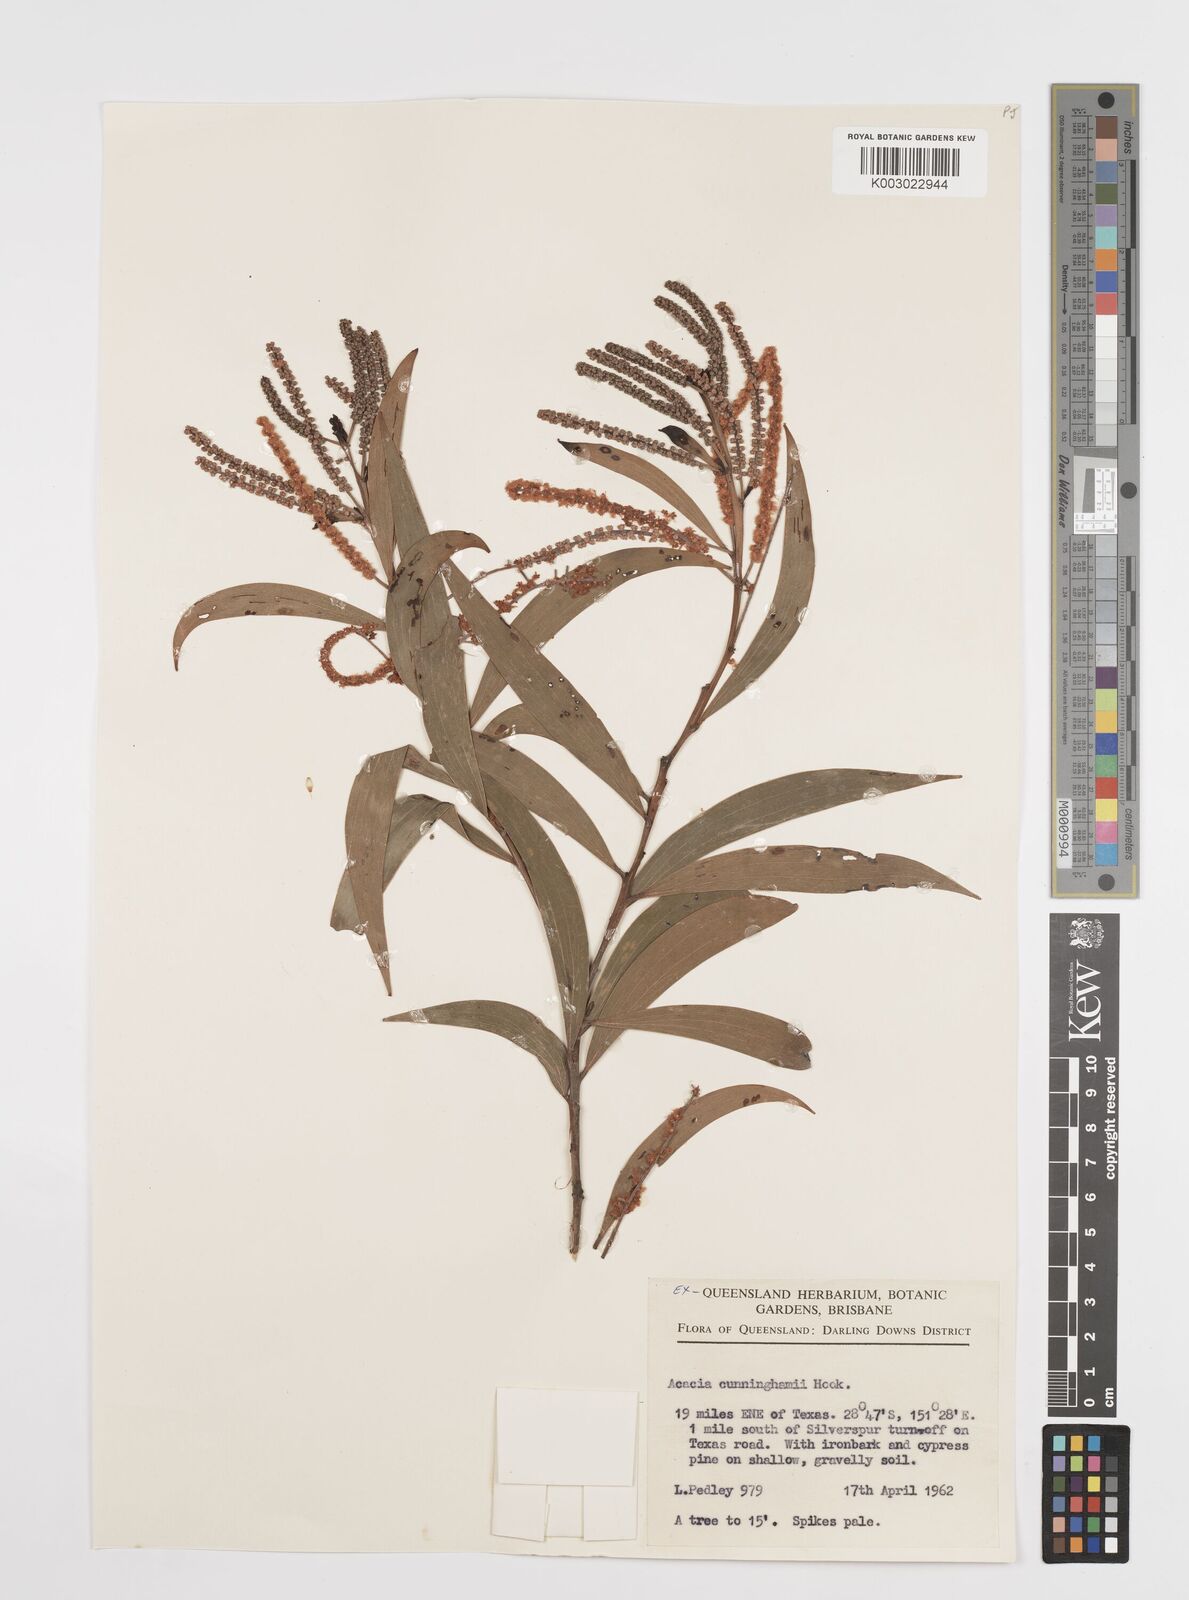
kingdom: Plantae
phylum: Tracheophyta
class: Magnoliopsida
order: Fabales
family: Fabaceae
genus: Acacia
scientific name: Acacia longispicata
